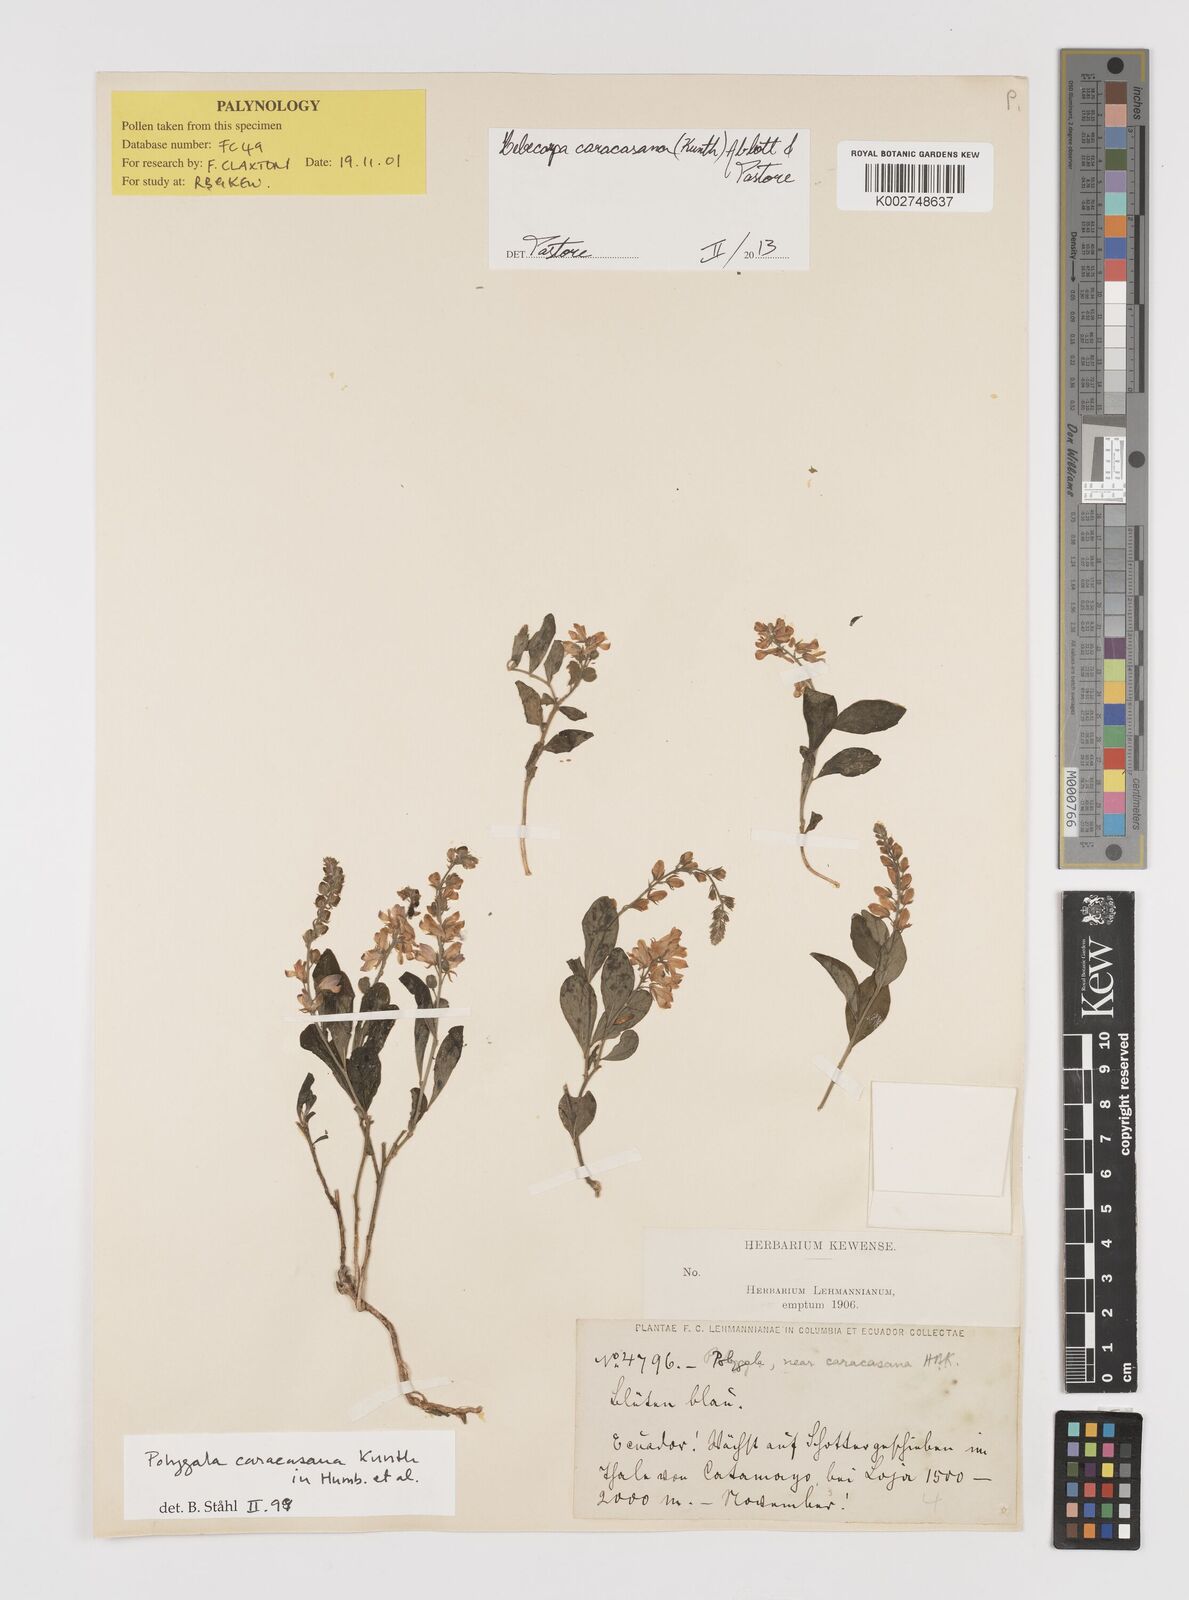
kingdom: Plantae
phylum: Tracheophyta
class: Magnoliopsida
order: Fabales
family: Polygalaceae
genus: Hebecarpa
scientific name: Hebecarpa caracasana
